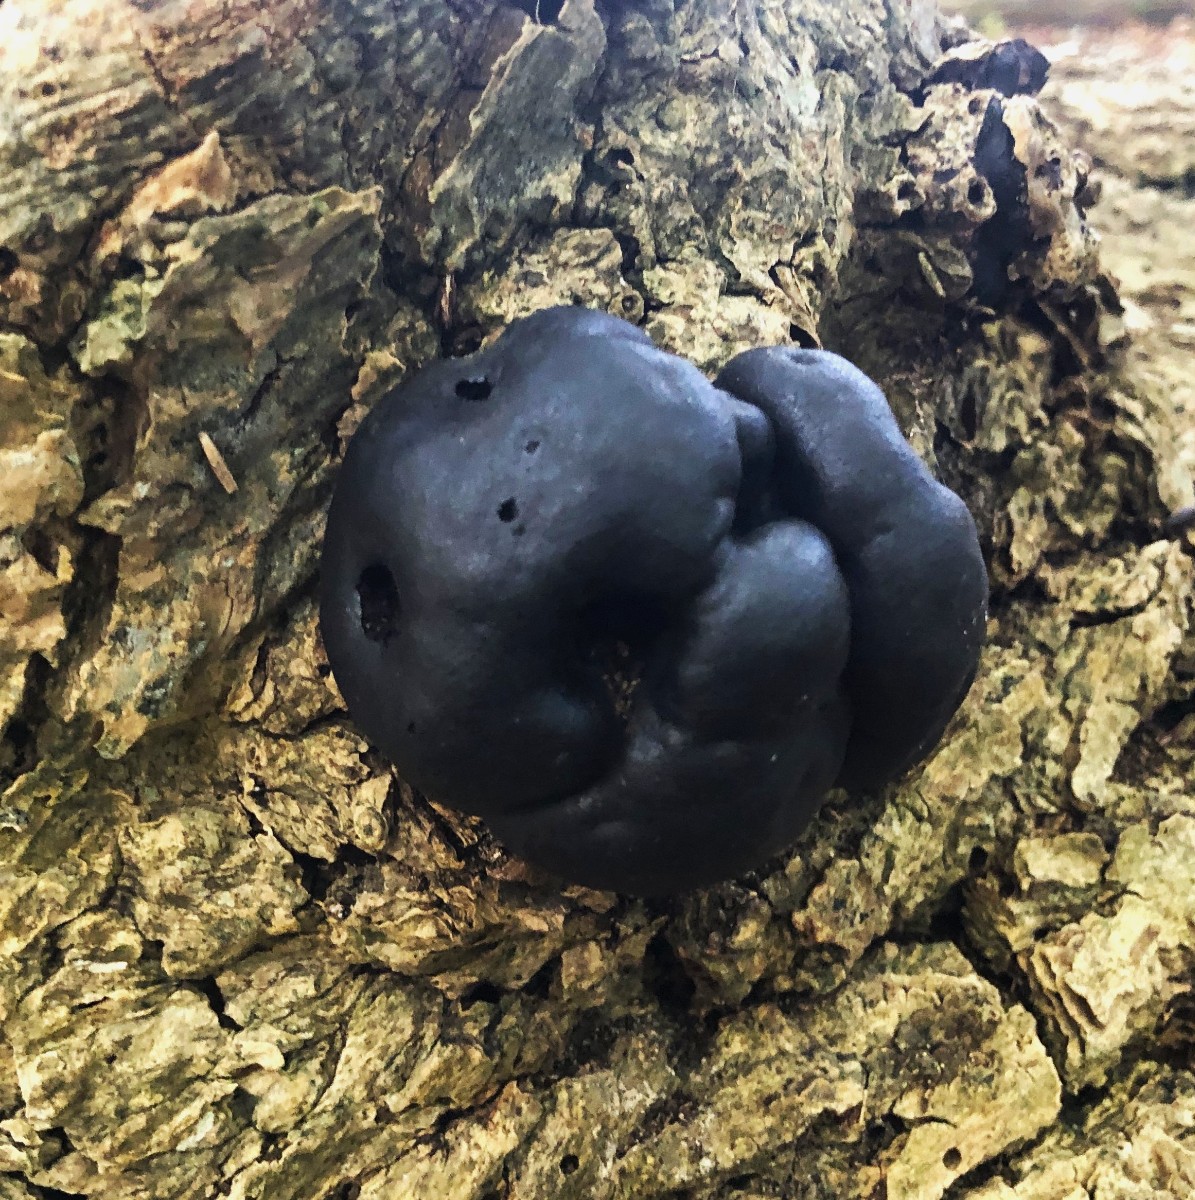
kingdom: Fungi
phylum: Ascomycota
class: Sordariomycetes
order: Xylariales
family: Hypoxylaceae
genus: Daldinia
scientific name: Daldinia concentrica
